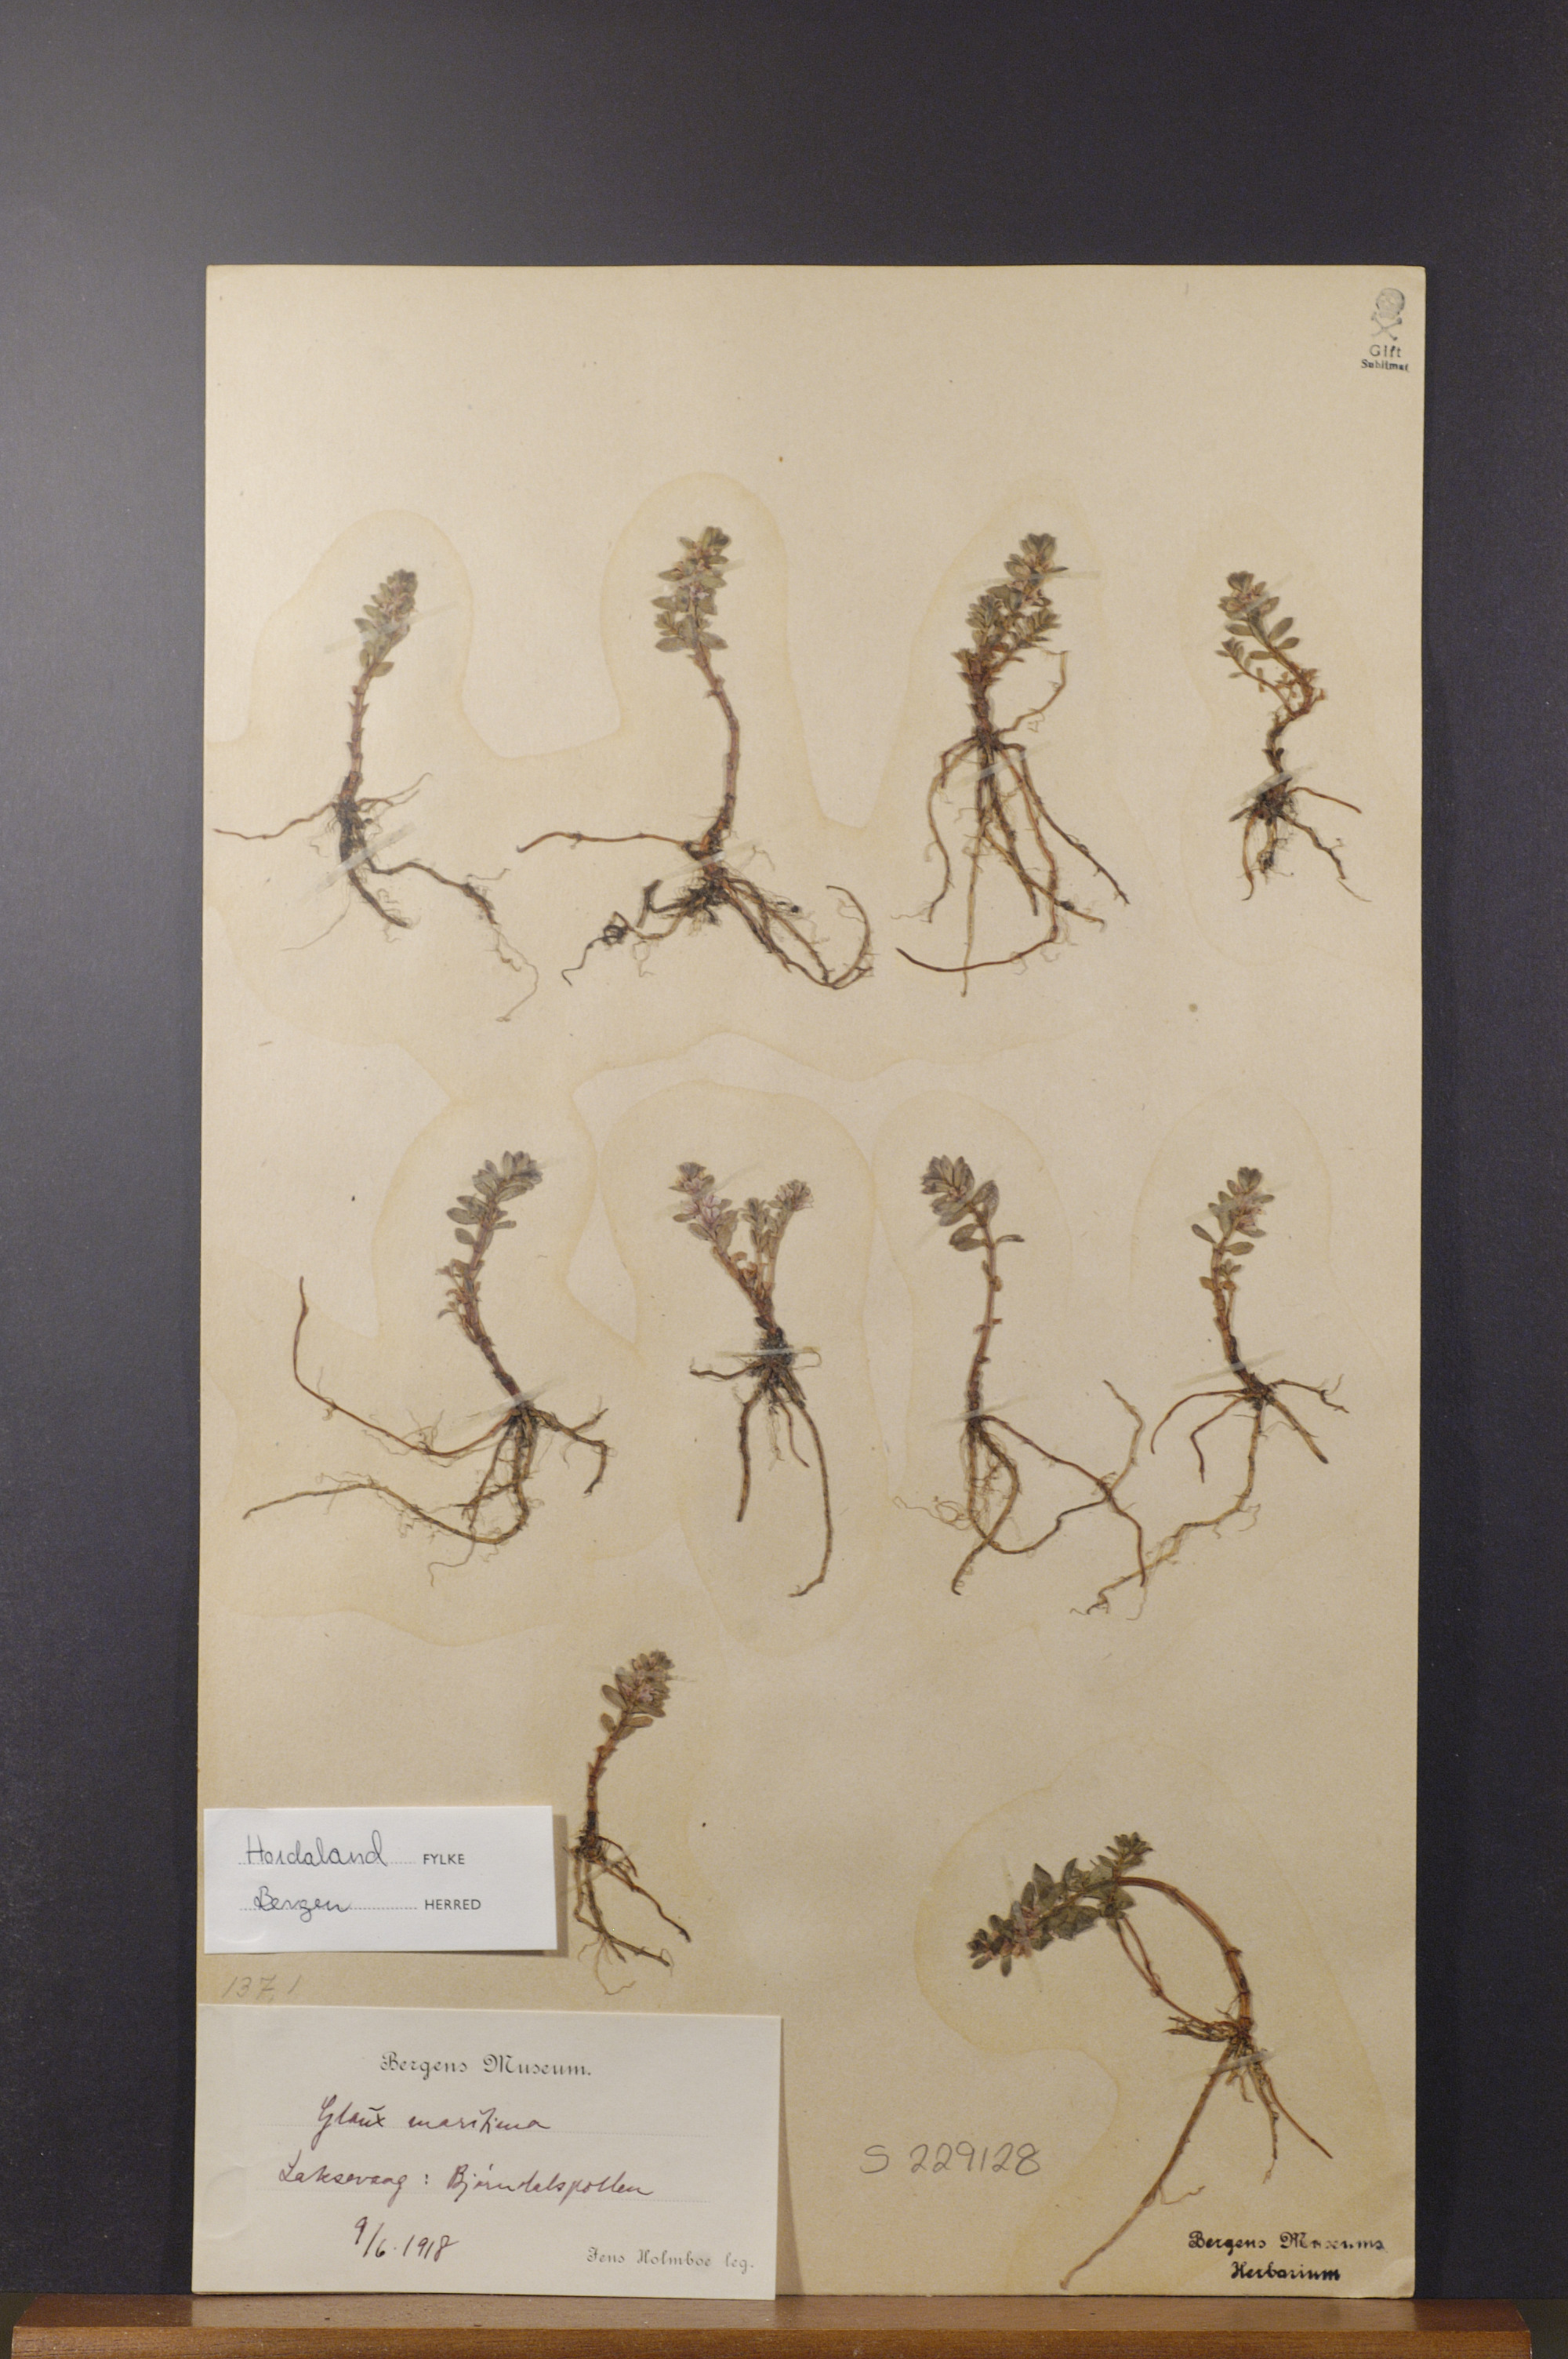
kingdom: Plantae
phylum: Tracheophyta
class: Magnoliopsida
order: Ericales
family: Primulaceae
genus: Lysimachia
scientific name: Lysimachia maritima
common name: Sea milkwort
